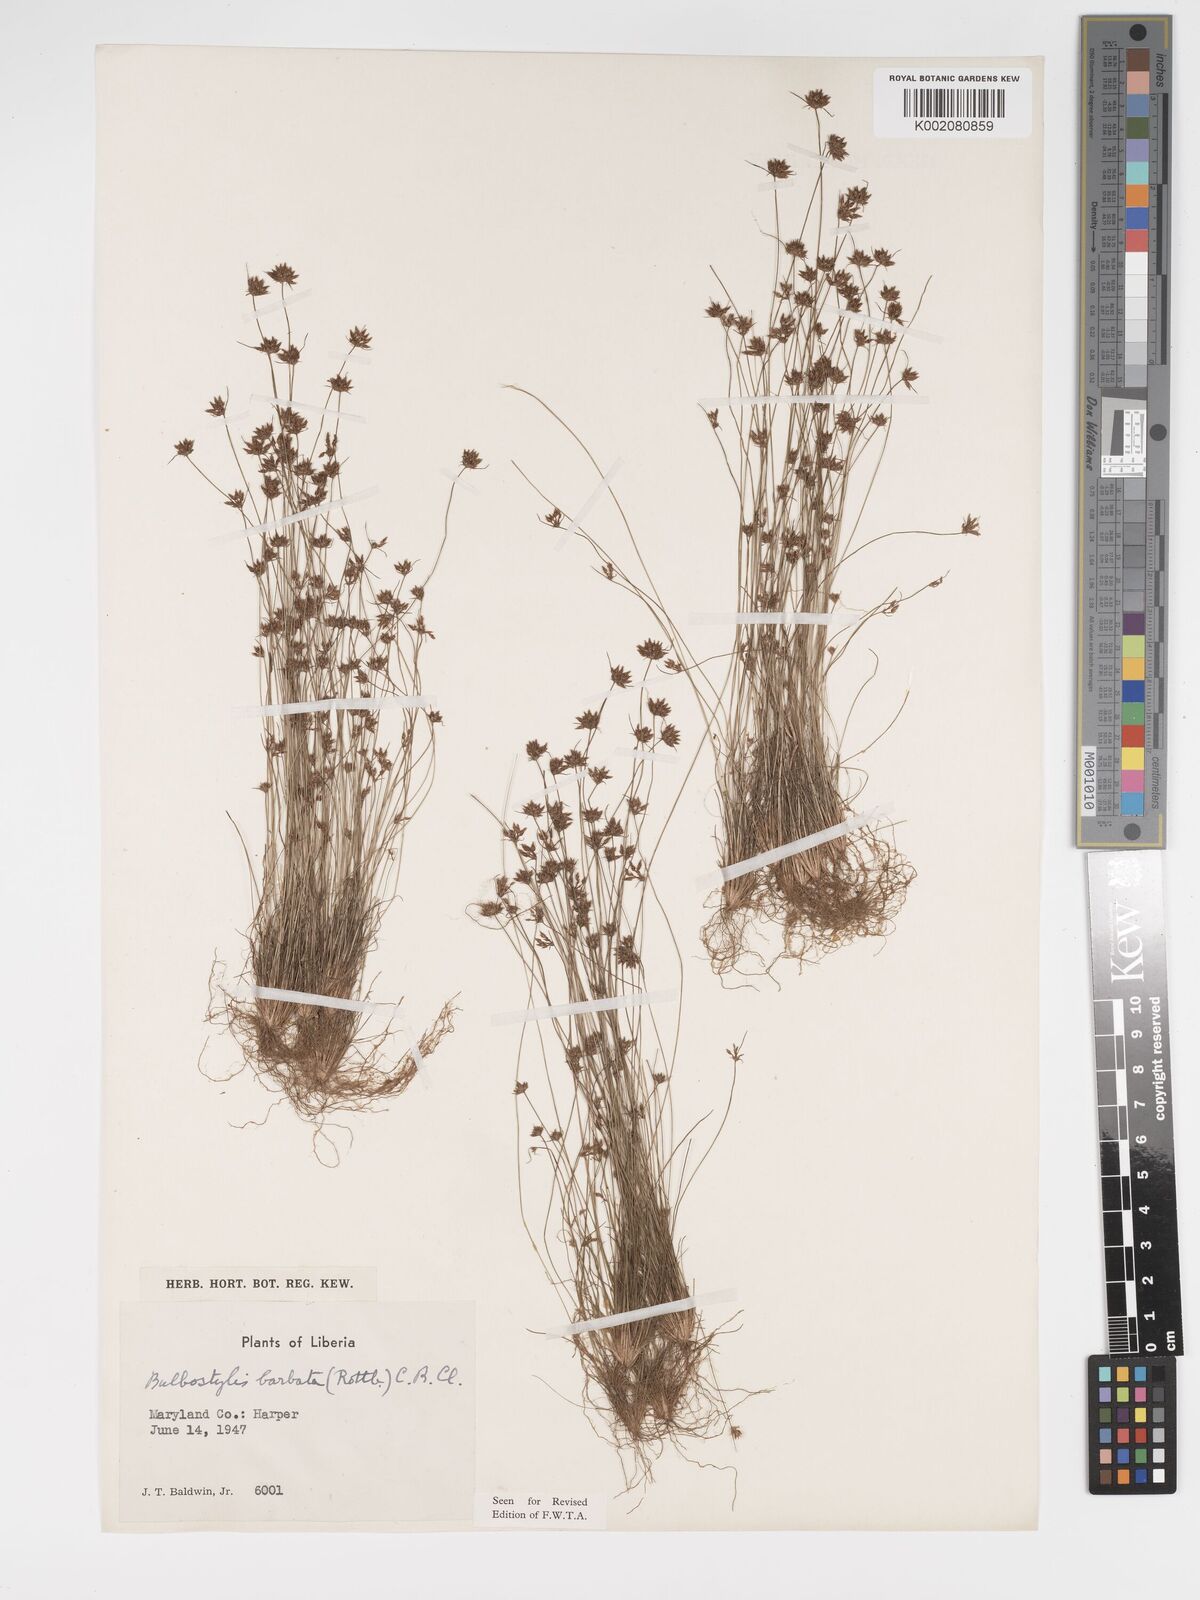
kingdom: Plantae
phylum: Tracheophyta
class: Liliopsida
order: Poales
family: Cyperaceae
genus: Bulbostylis
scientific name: Bulbostylis barbata
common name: Watergrass
